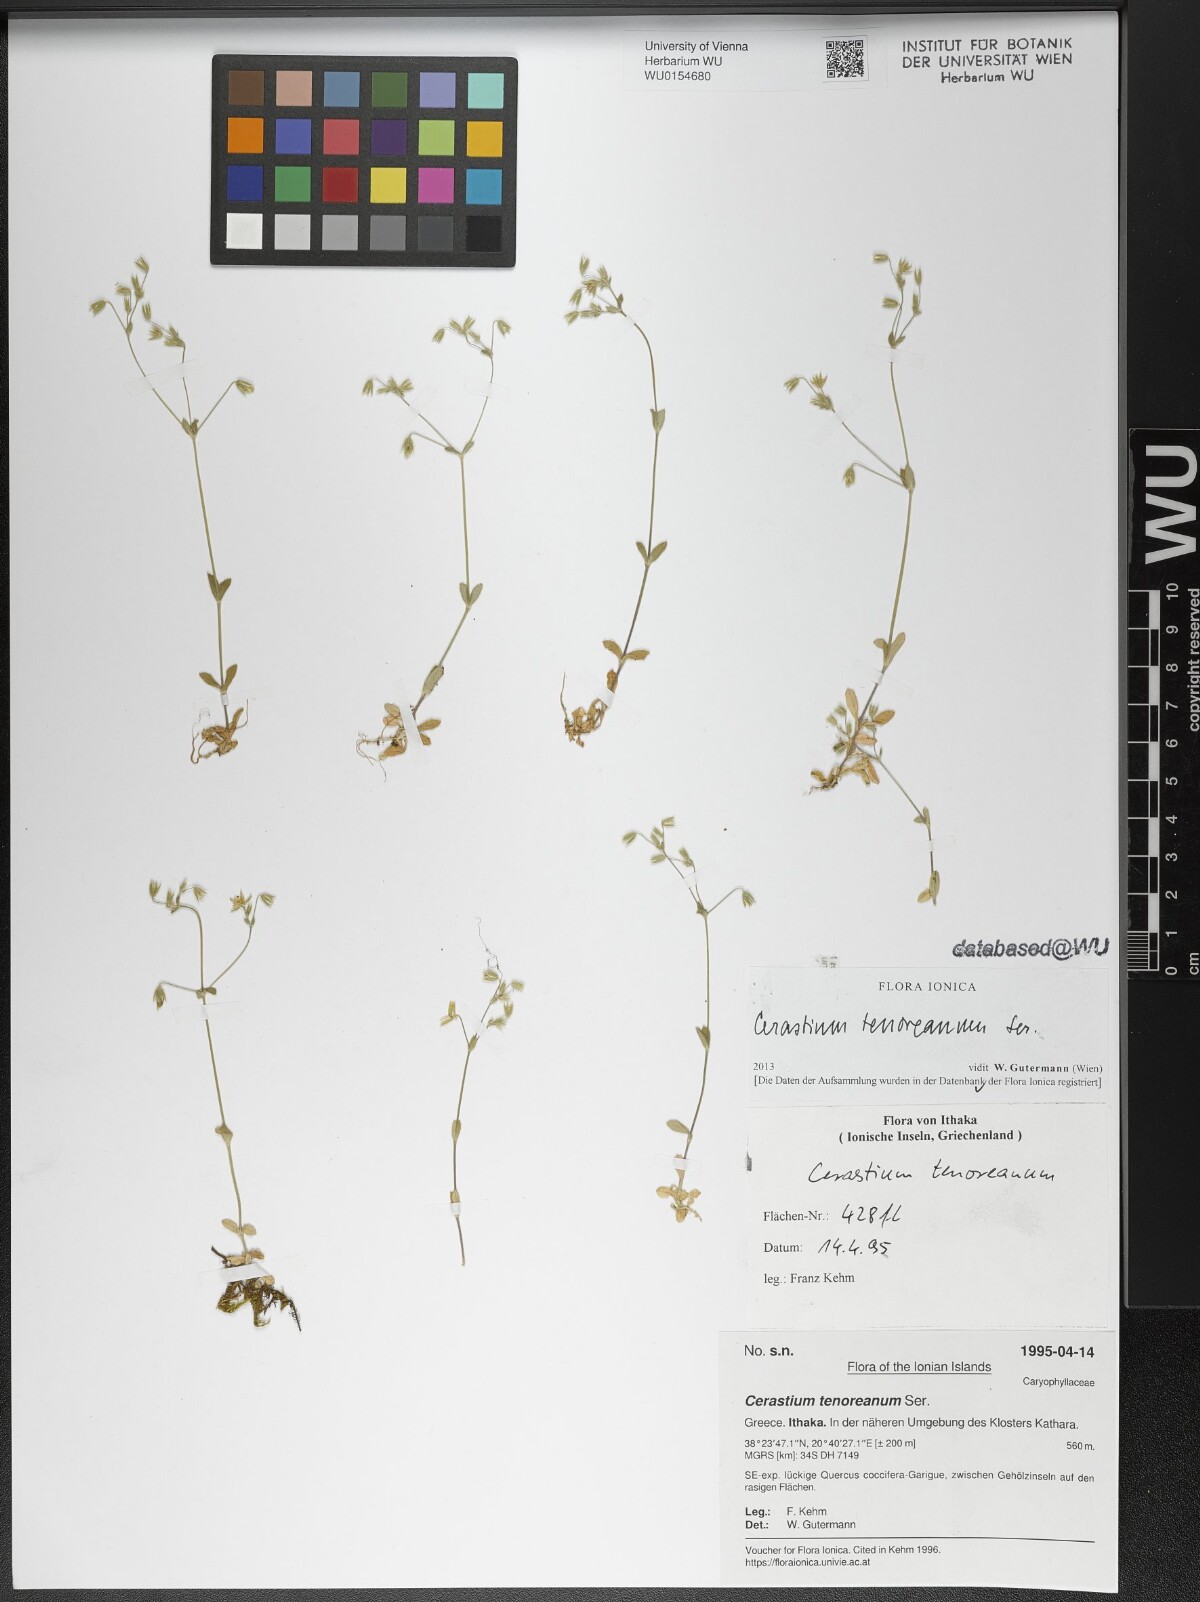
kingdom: Plantae
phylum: Tracheophyta
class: Magnoliopsida
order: Caryophyllales
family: Caryophyllaceae
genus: Cerastium
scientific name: Cerastium tenoreanum
